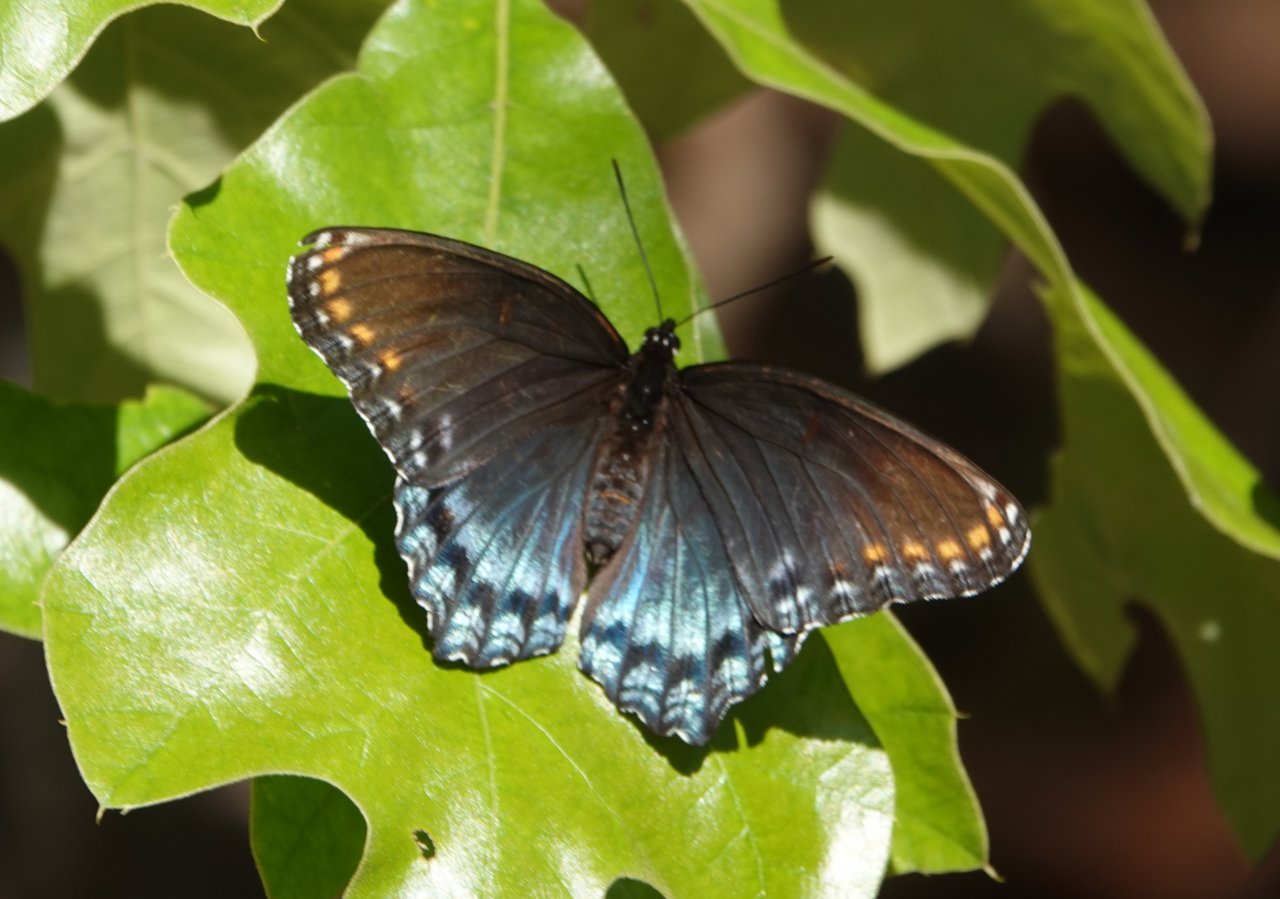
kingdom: Animalia
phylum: Arthropoda
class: Insecta
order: Lepidoptera
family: Nymphalidae
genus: Limenitis
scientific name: Limenitis astyanax
